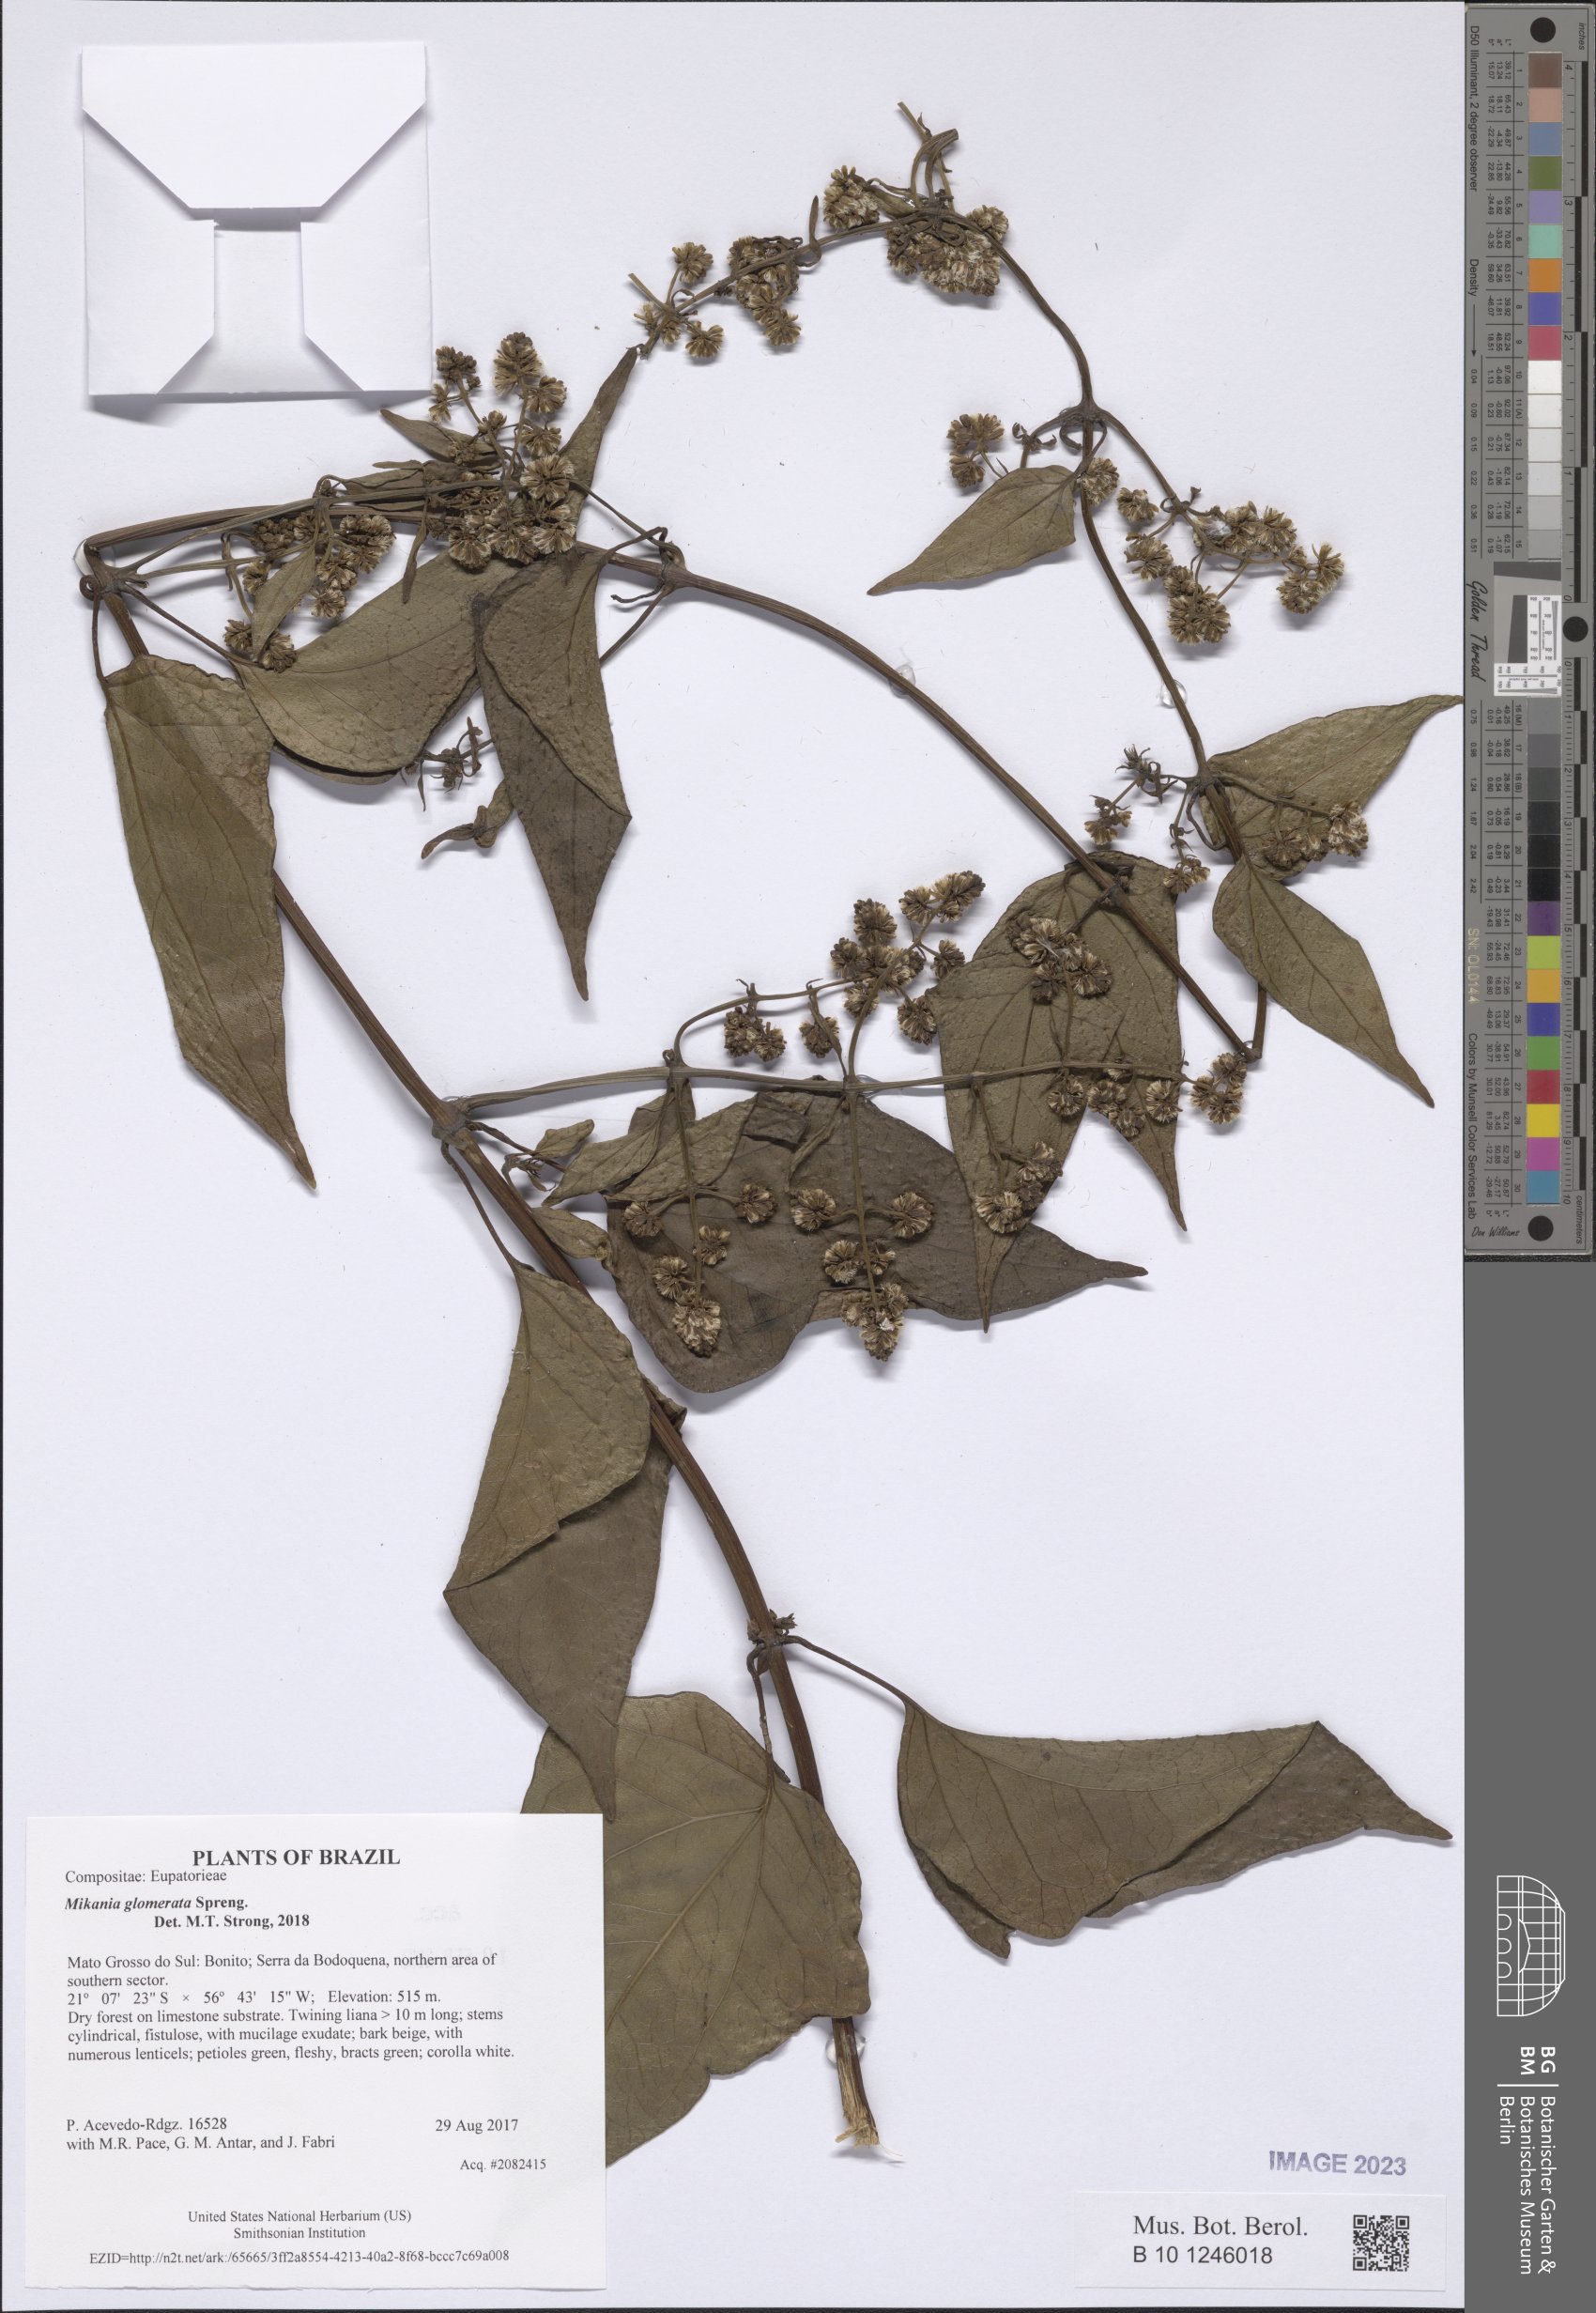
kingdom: Plantae
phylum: Tracheophyta
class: Magnoliopsida
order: Asterales
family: Asteraceae
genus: Mikania
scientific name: Mikania glomerata
